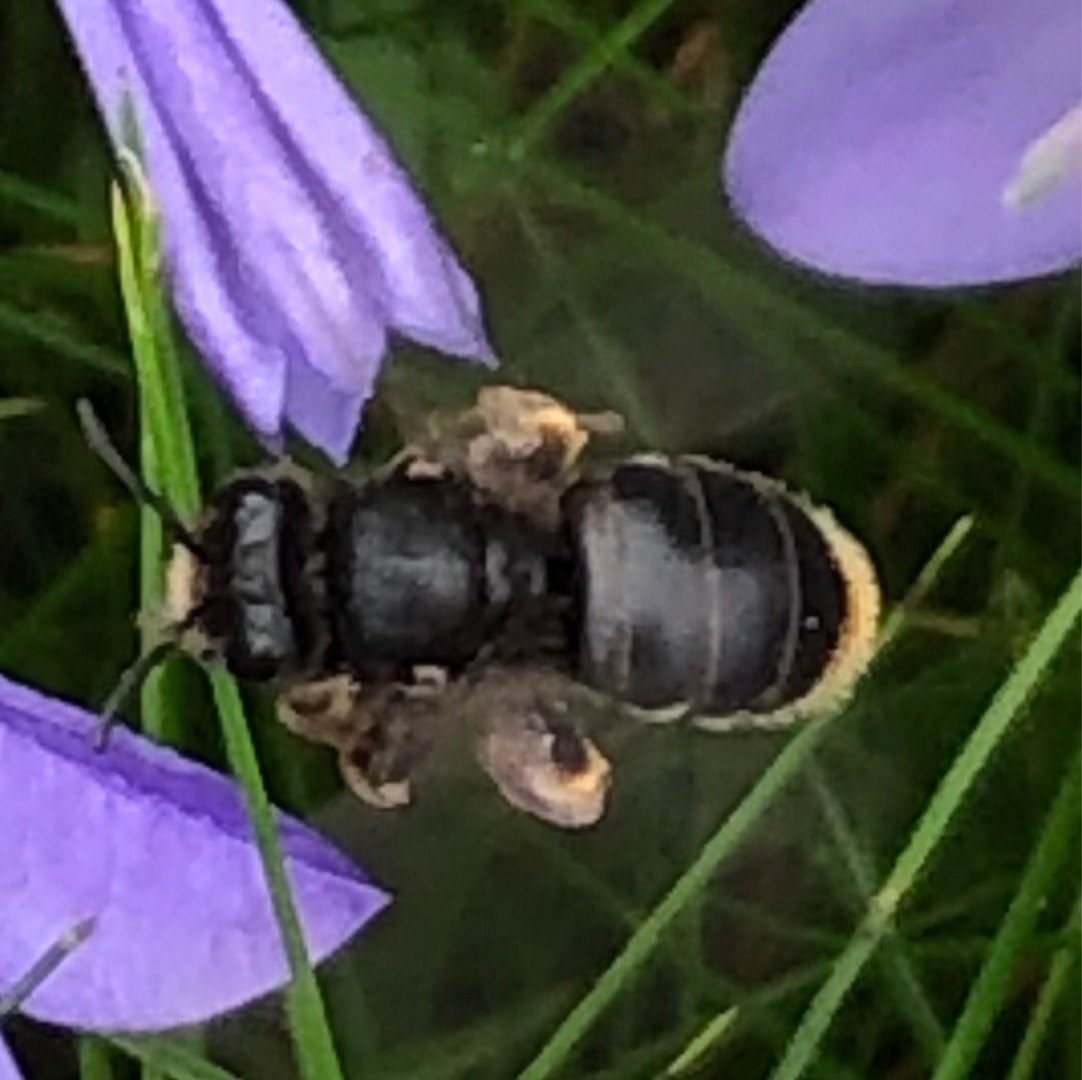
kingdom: Plantae
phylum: Tracheophyta
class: Magnoliopsida
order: Asterales
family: Campanulaceae
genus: Campanula
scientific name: Campanula rotundifolia
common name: Liden klokke
